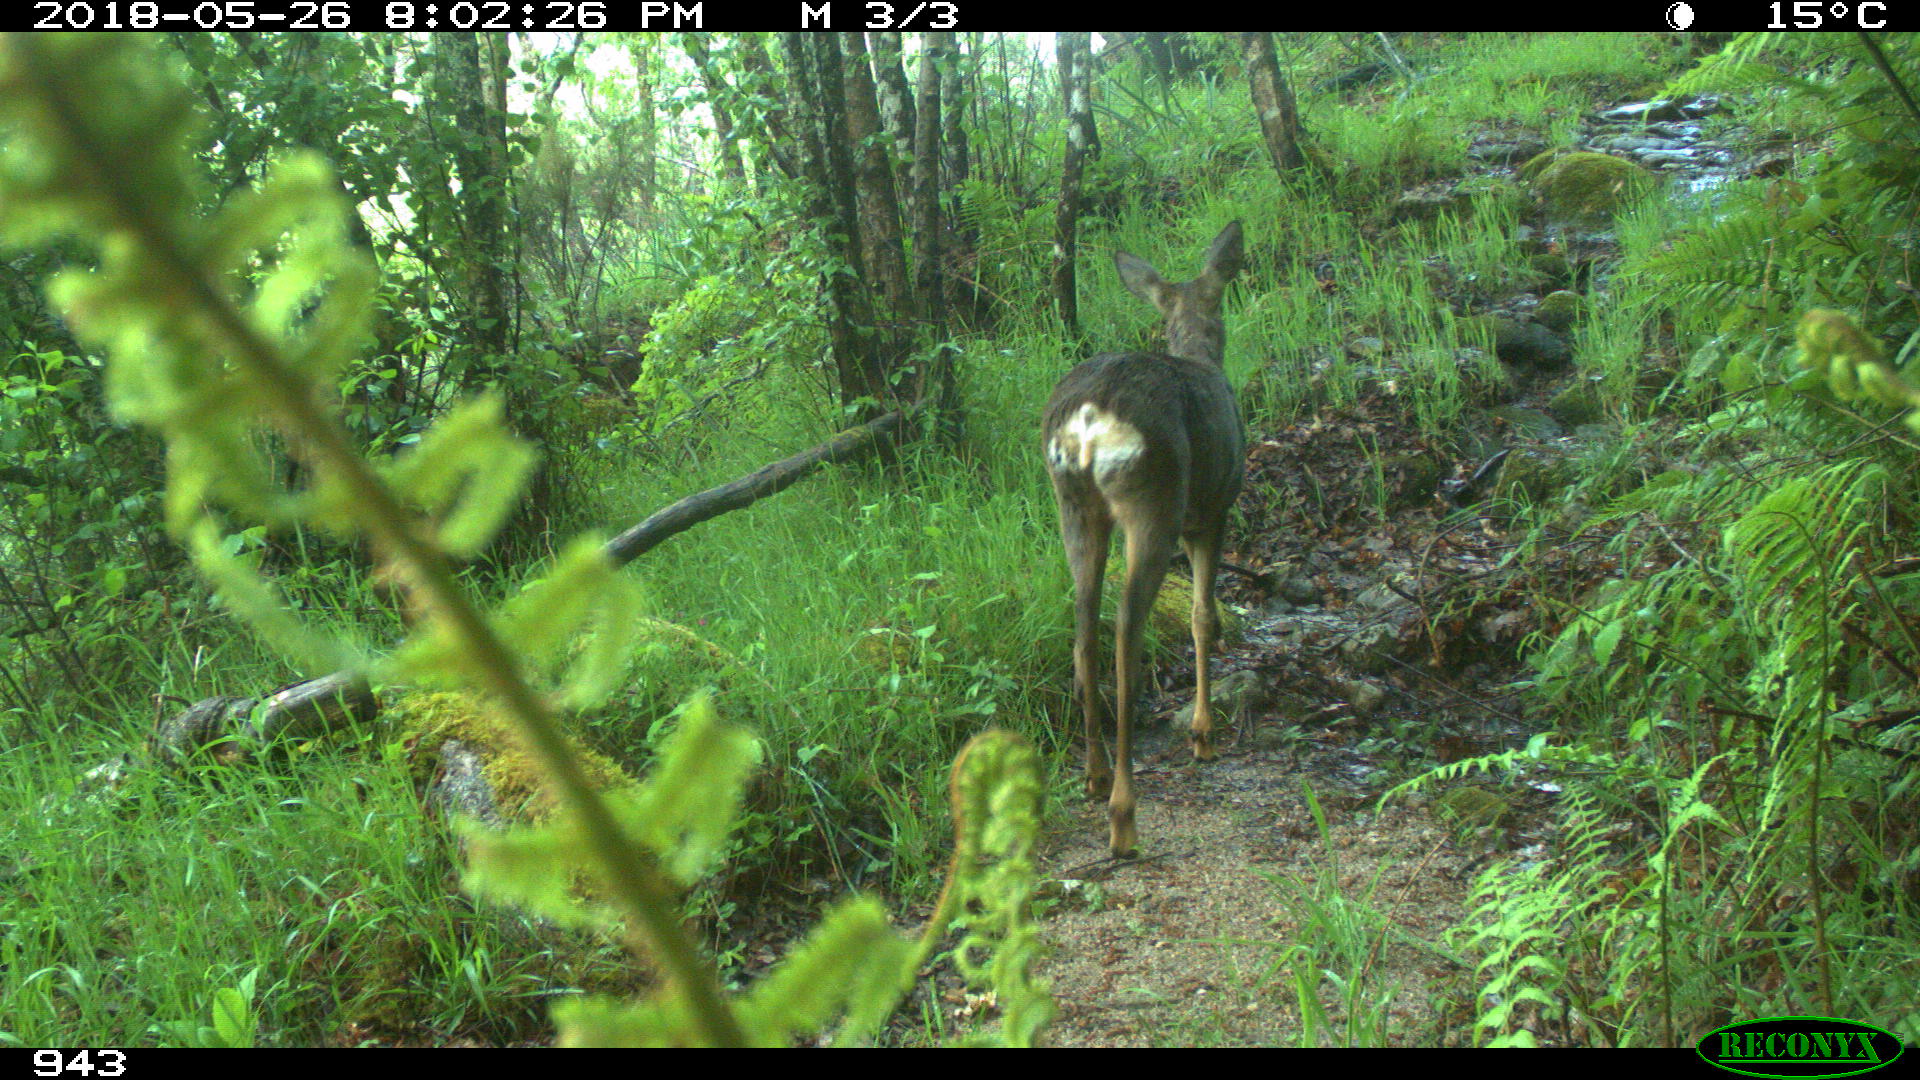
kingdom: Animalia
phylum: Chordata
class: Mammalia
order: Artiodactyla
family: Cervidae
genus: Capreolus
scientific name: Capreolus capreolus
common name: Western roe deer
